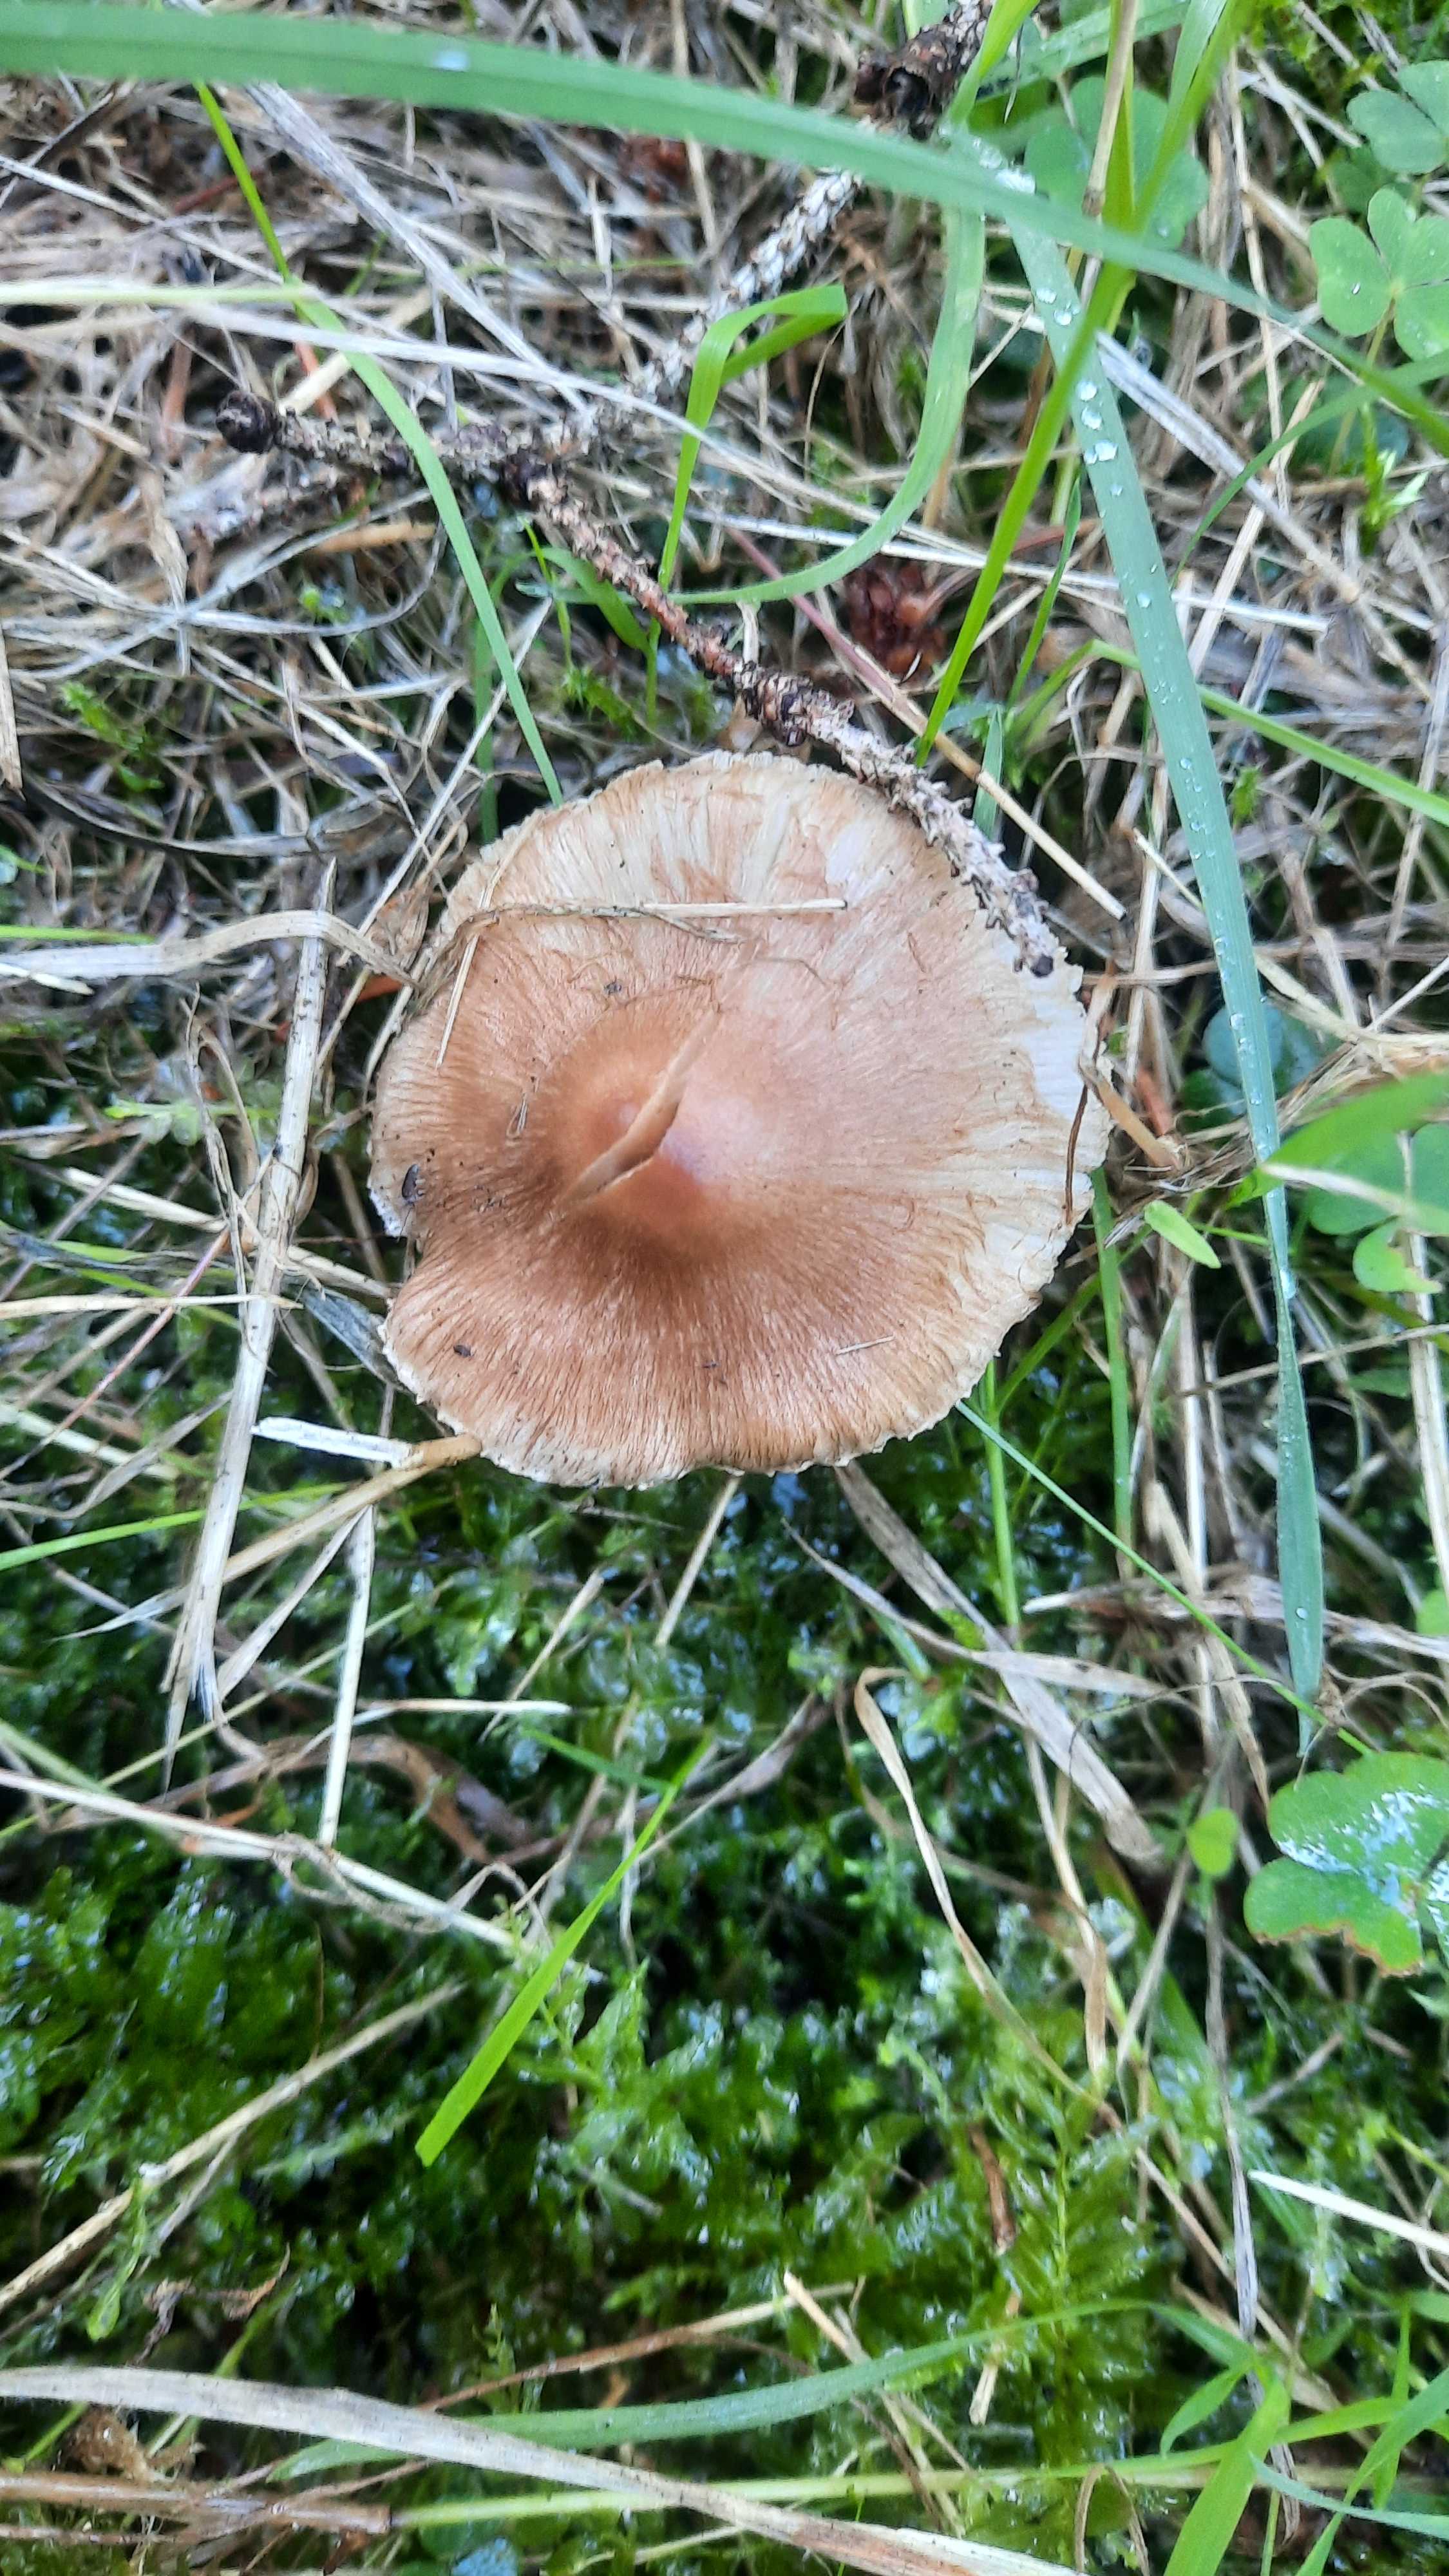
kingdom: Fungi
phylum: Basidiomycota
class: Agaricomycetes
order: Agaricales
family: Inocybaceae
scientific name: Inocybaceae
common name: trævlhatfamilien
